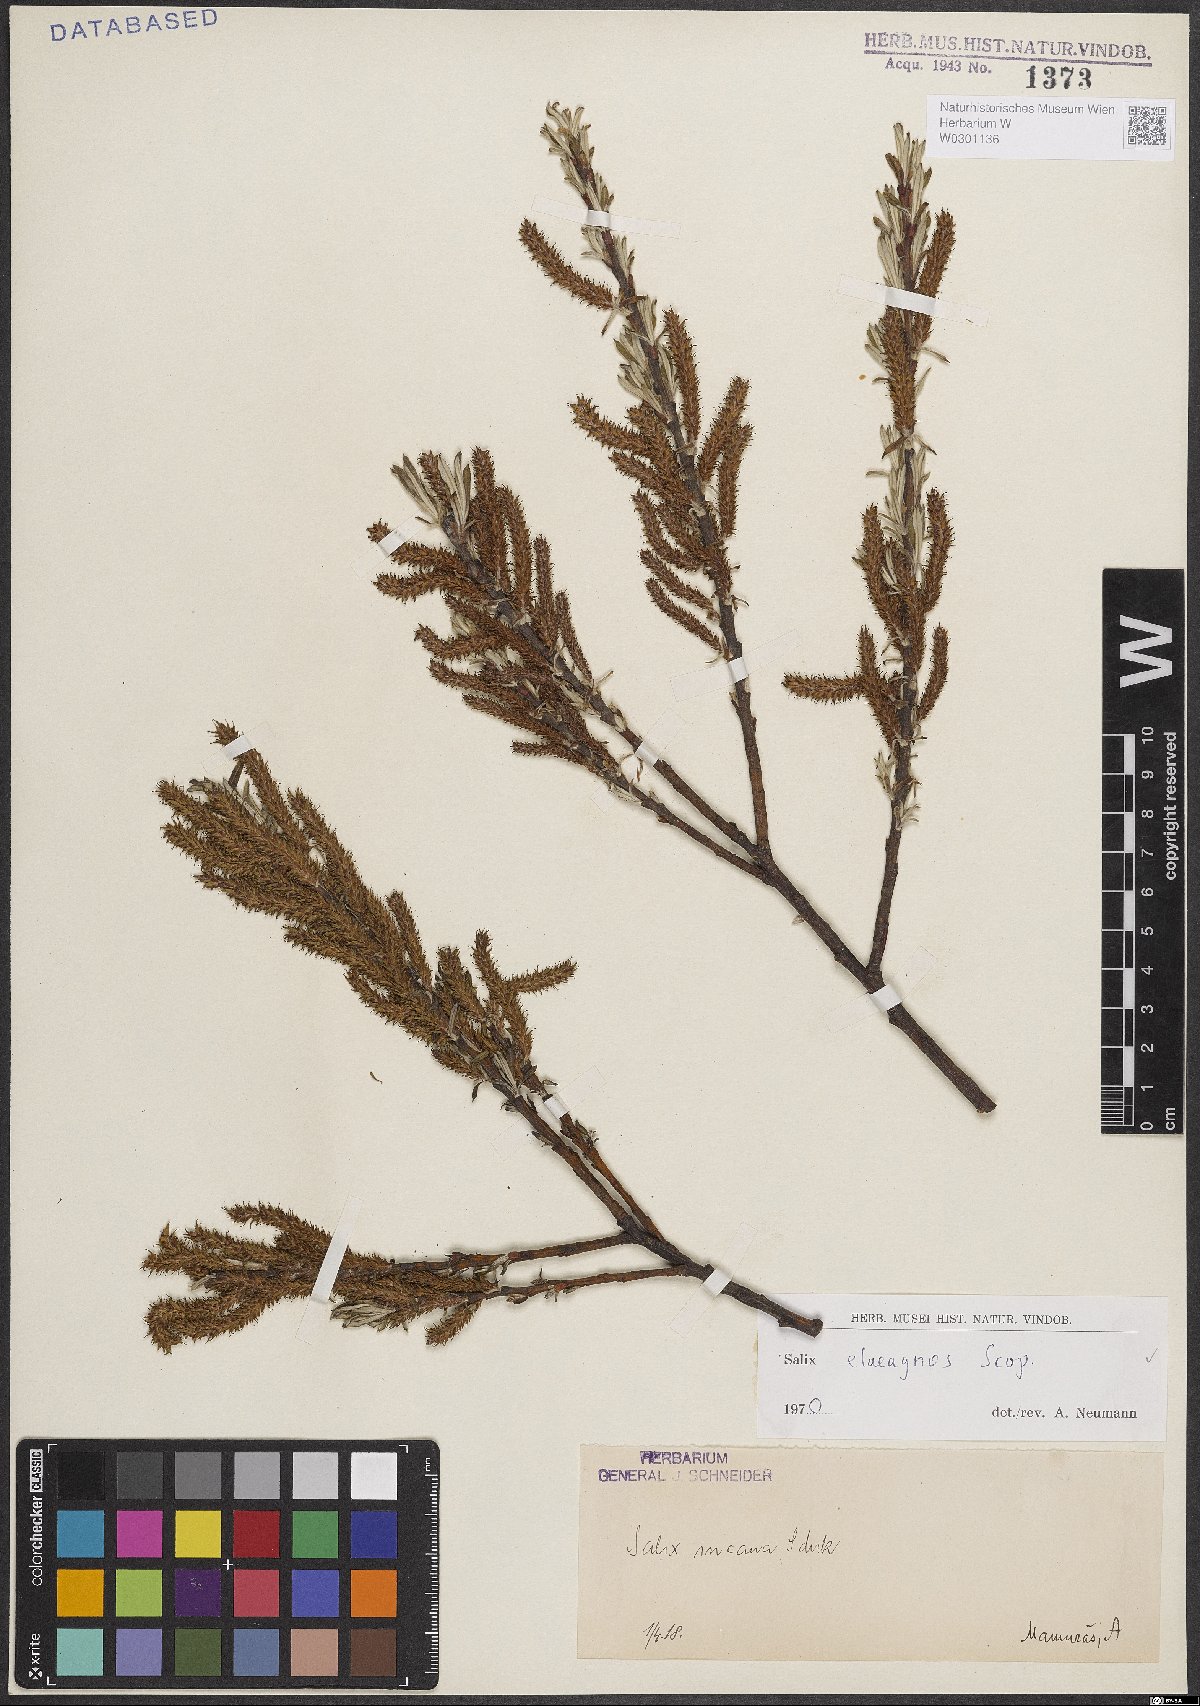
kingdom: Plantae
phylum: Tracheophyta
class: Magnoliopsida
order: Malpighiales
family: Salicaceae
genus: Salix
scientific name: Salix eleagnos
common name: Elaeagnus willow
